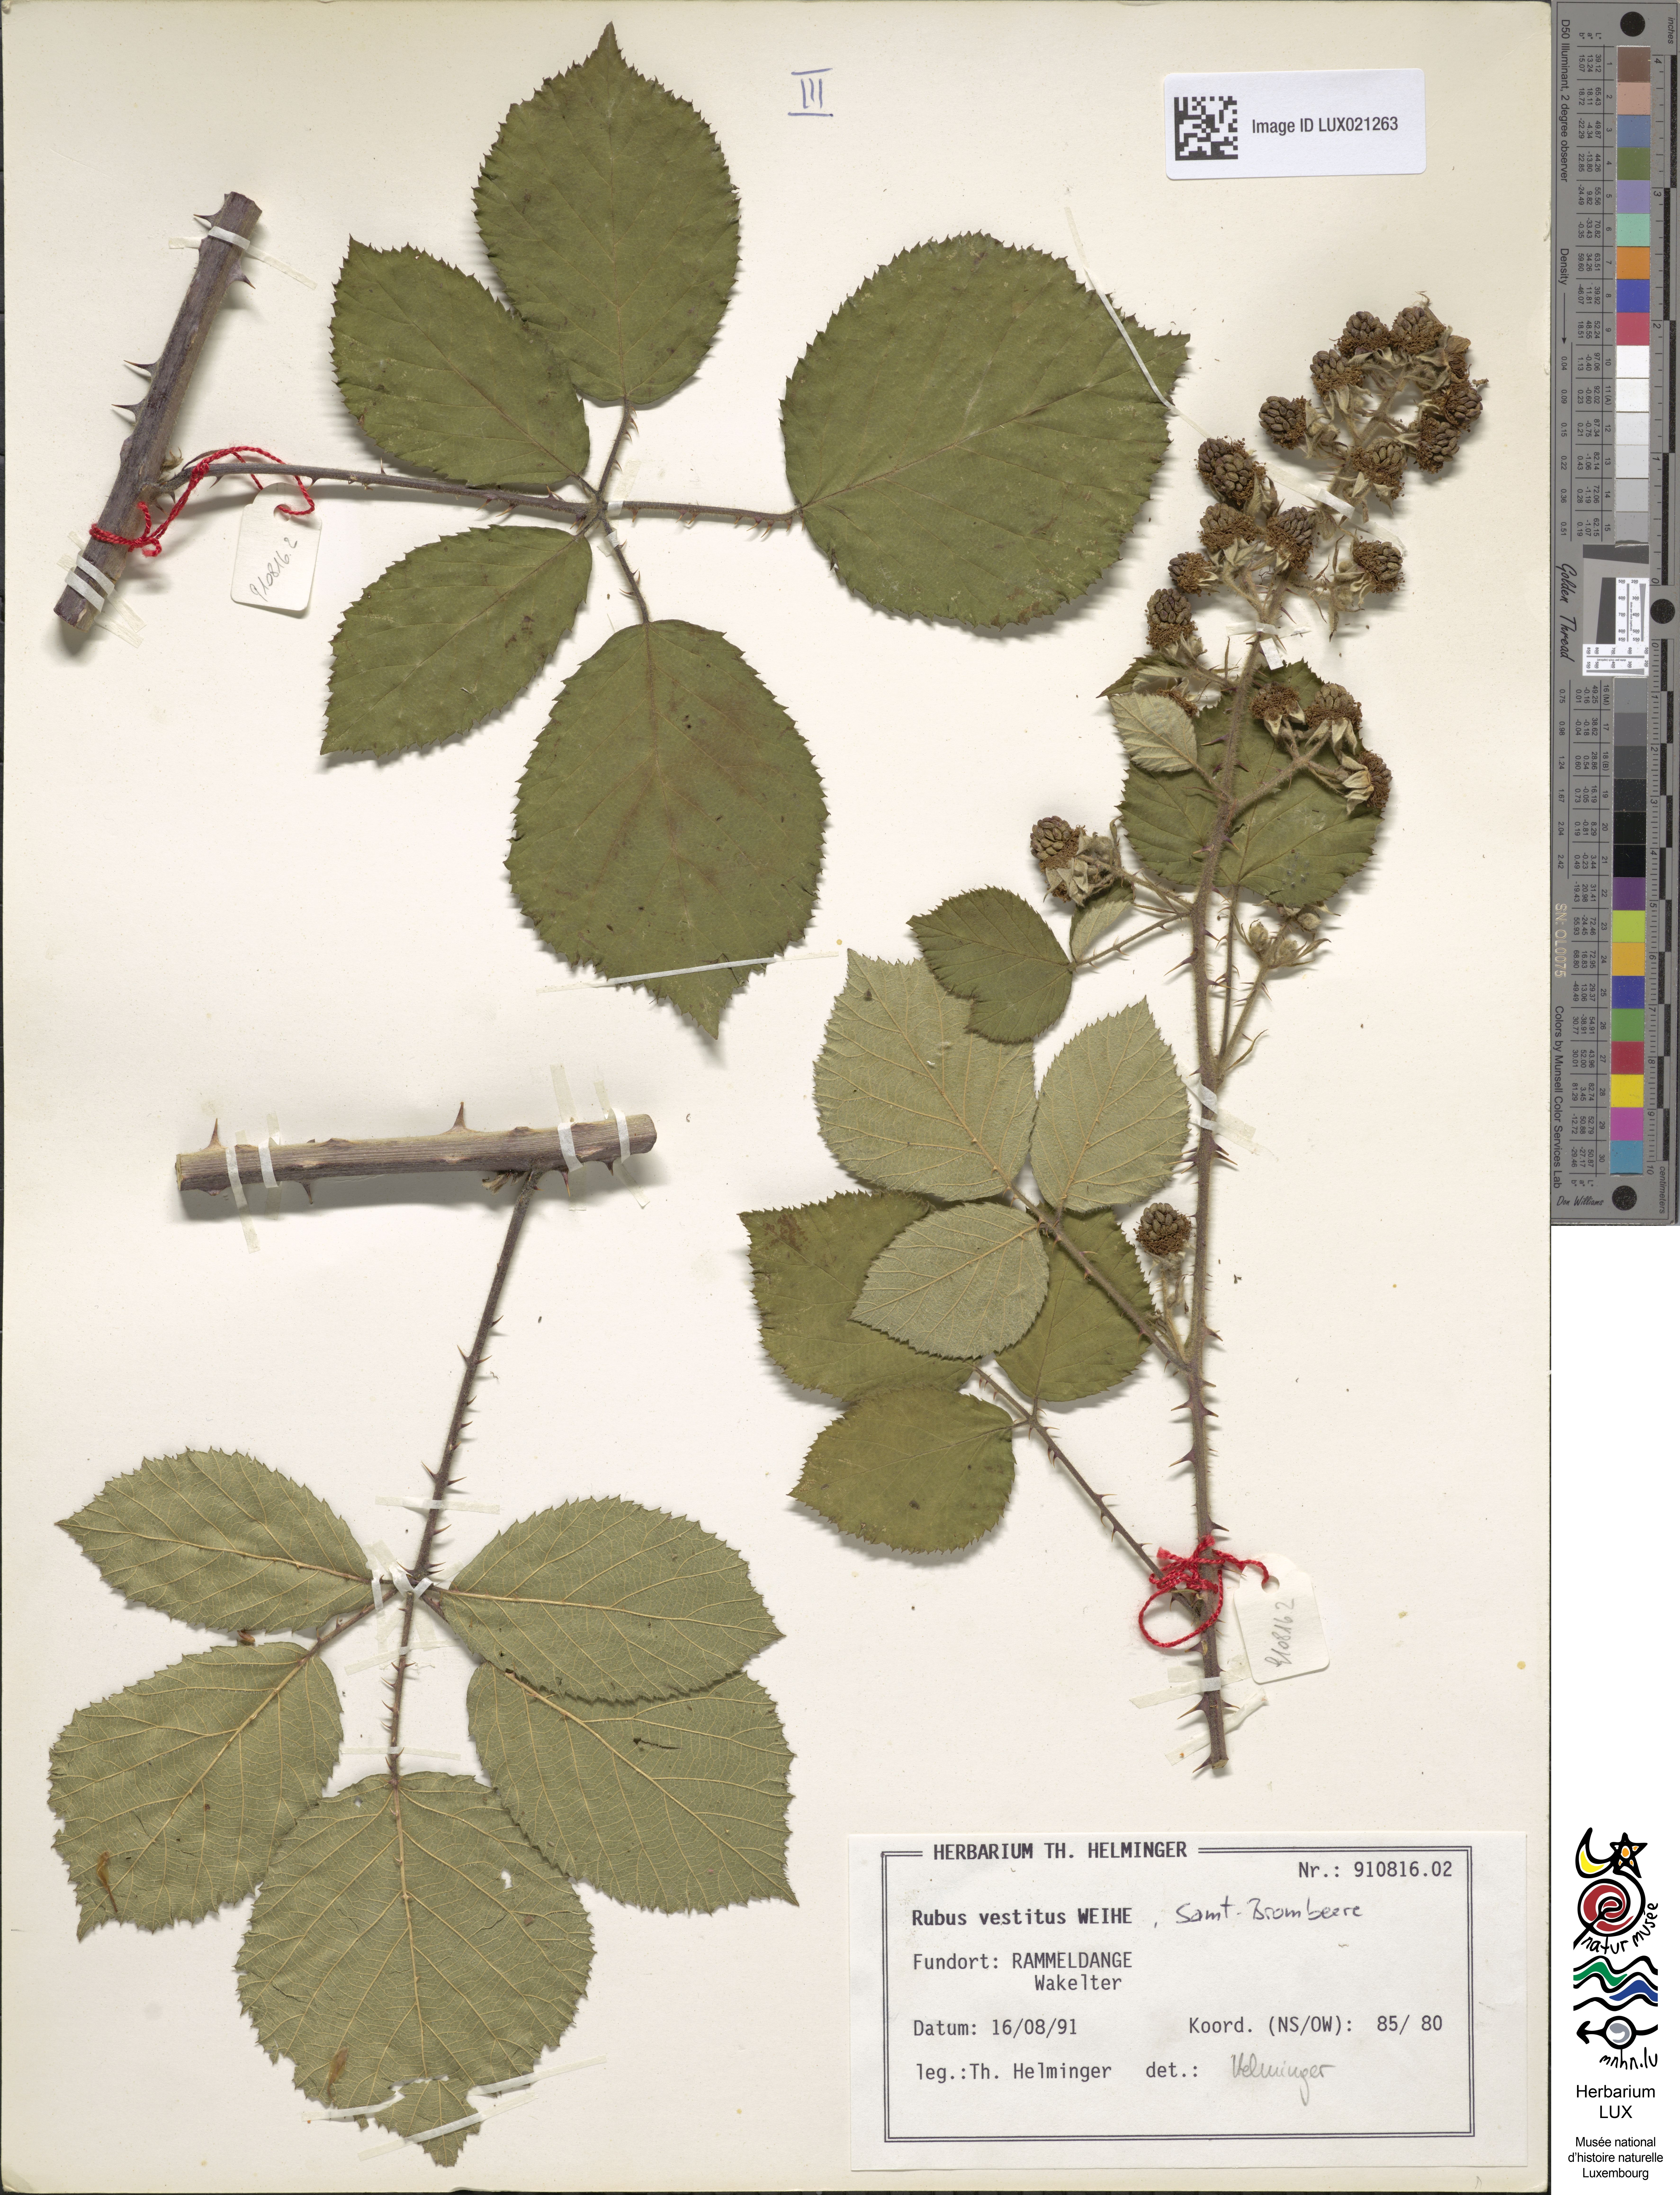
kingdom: Plantae
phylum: Tracheophyta
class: Magnoliopsida
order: Rosales
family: Rosaceae
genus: Rubus
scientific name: Rubus vestitus
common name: European blackberry
